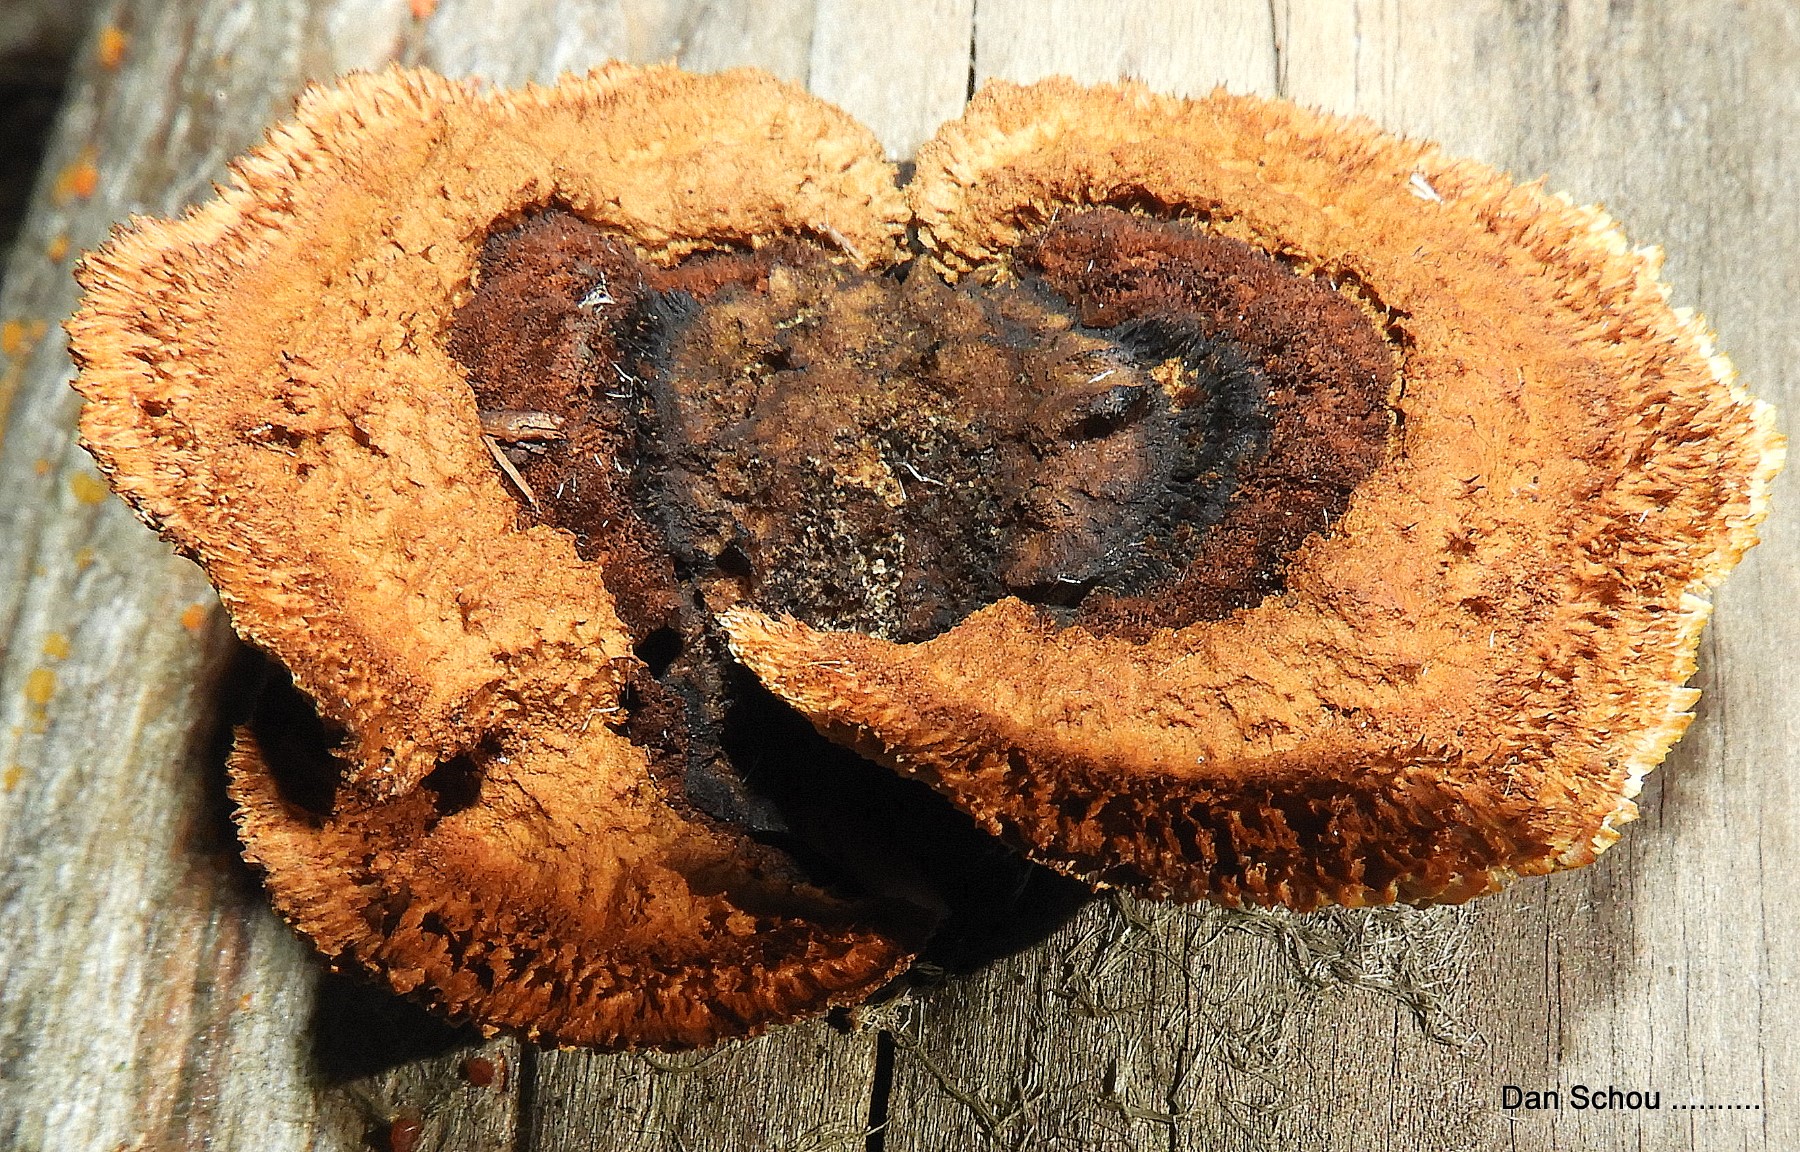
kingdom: Fungi
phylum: Basidiomycota
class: Agaricomycetes
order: Gloeophyllales
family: Gloeophyllaceae
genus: Gloeophyllum
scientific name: Gloeophyllum sepiarium
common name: fyrre-korkhat
